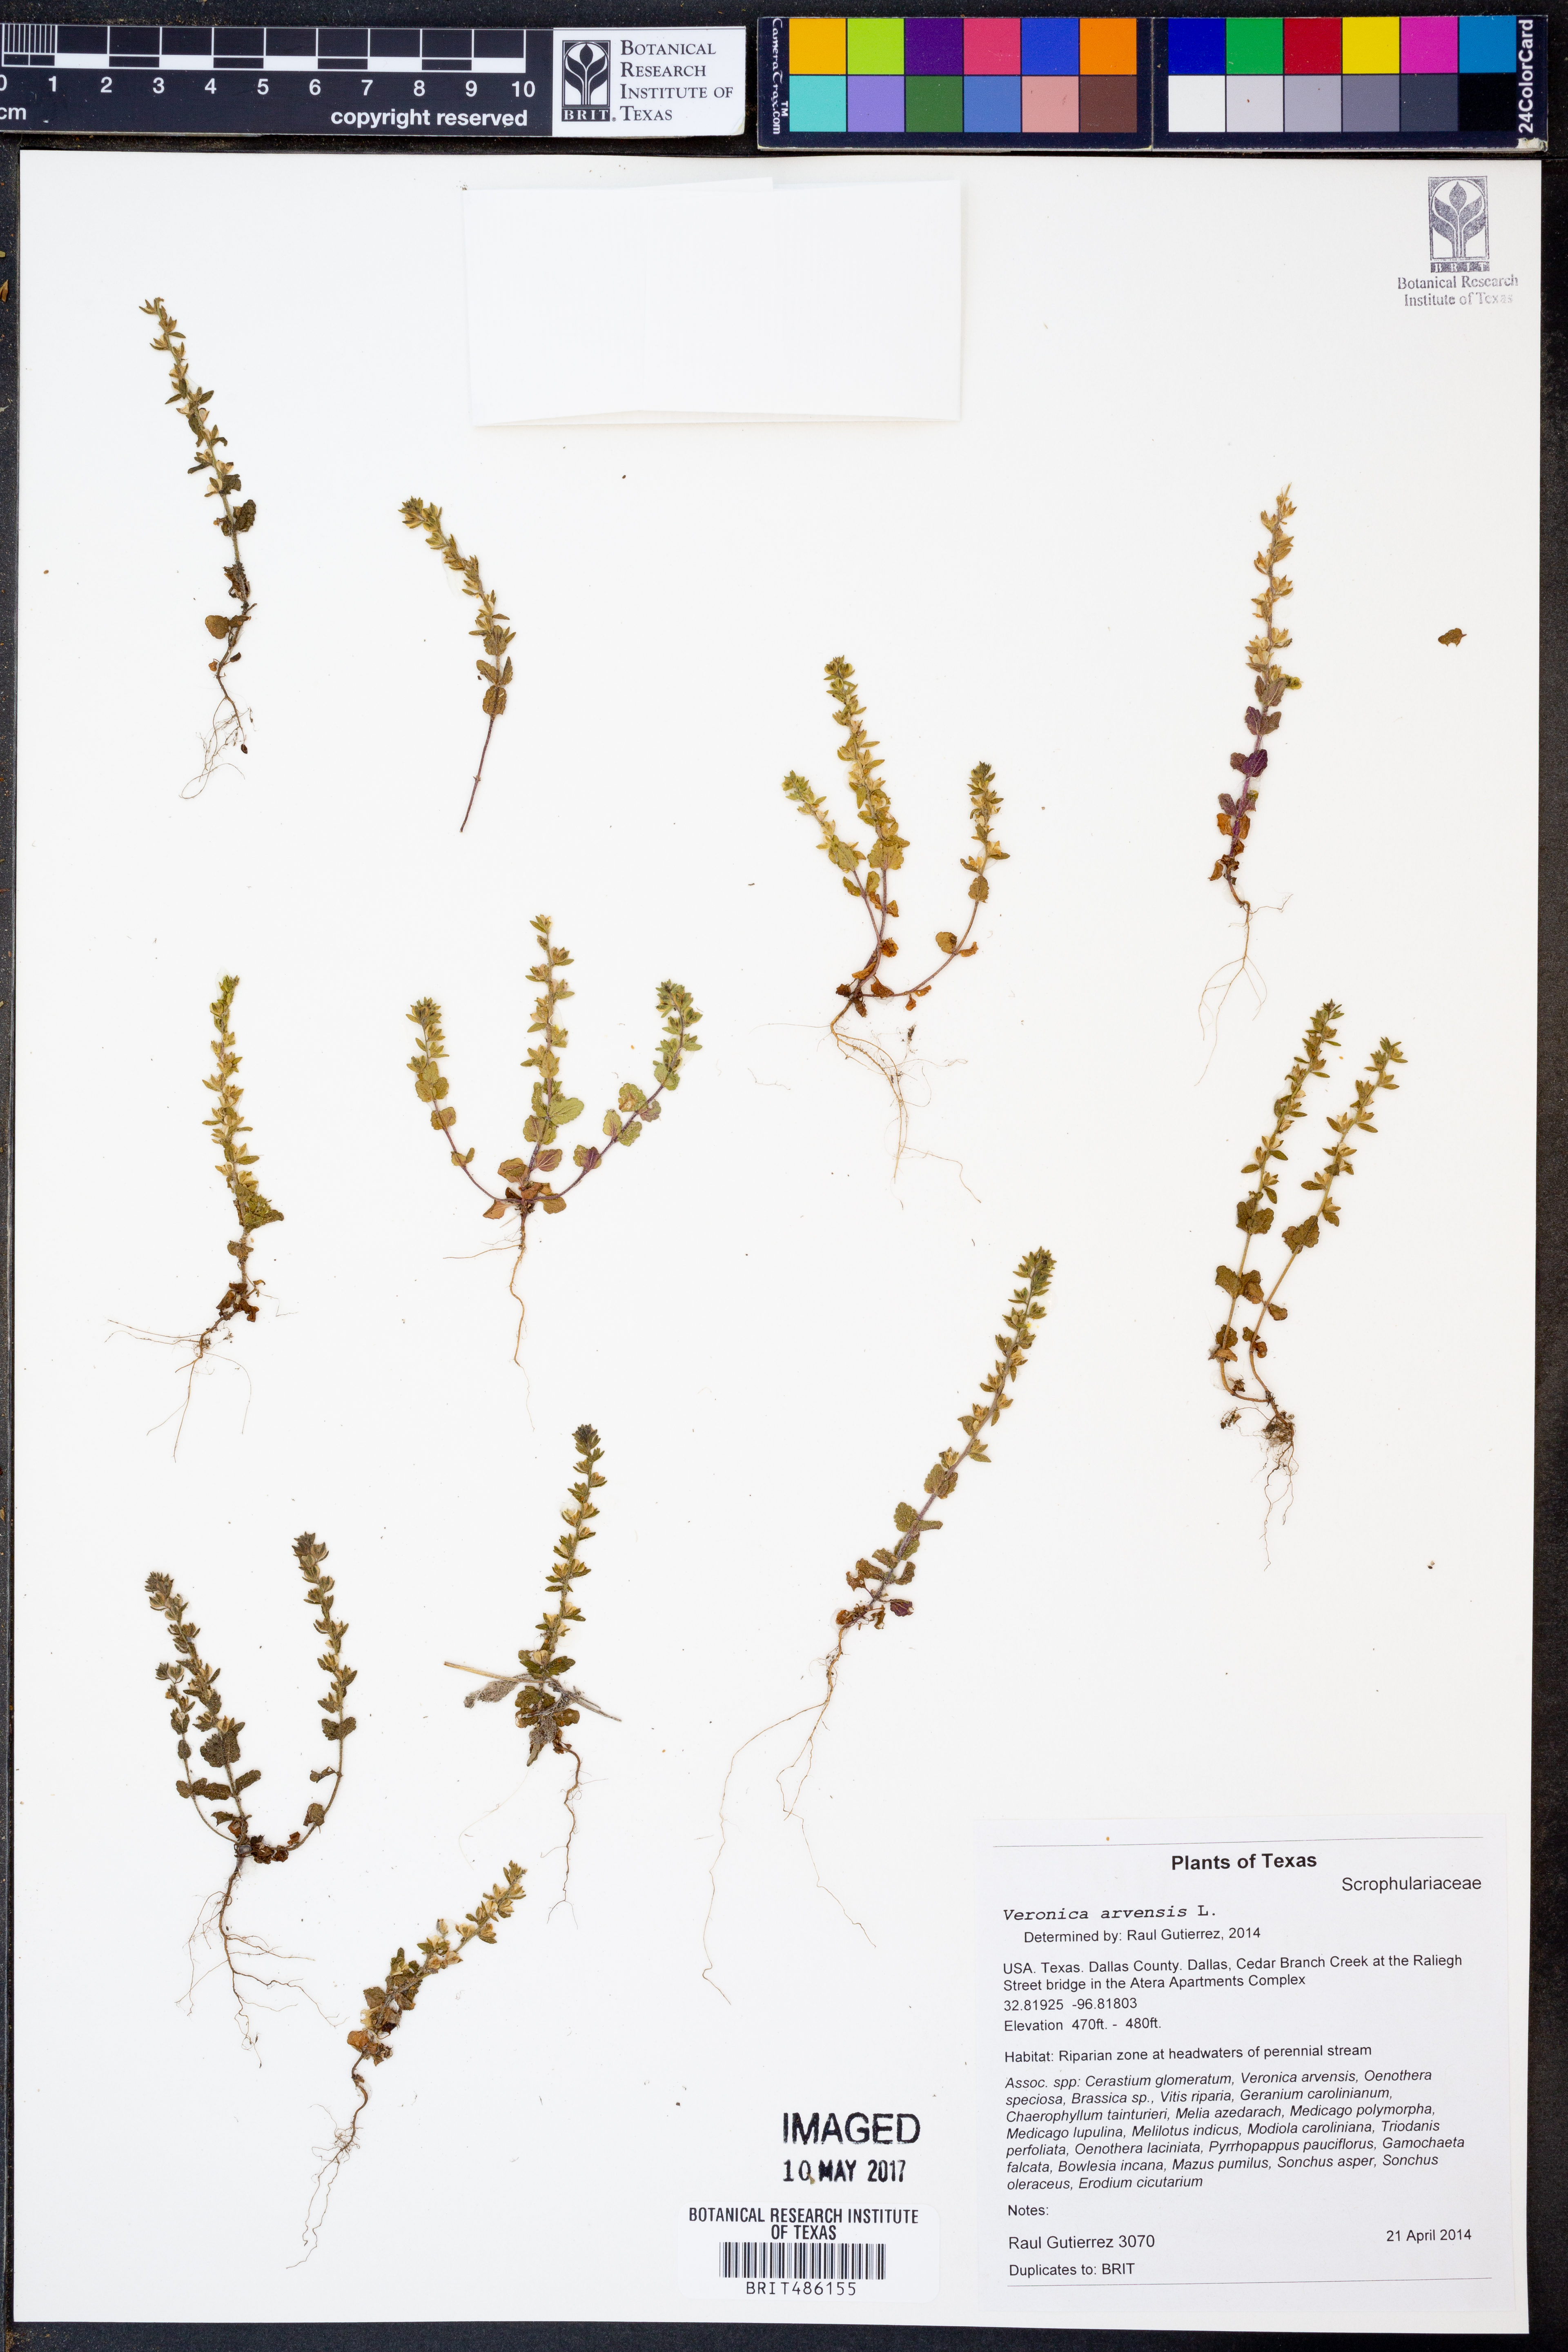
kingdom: Plantae
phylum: Tracheophyta
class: Magnoliopsida
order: Lamiales
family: Plantaginaceae
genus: Veronica
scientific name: Veronica arvensis
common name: Corn speedwell
